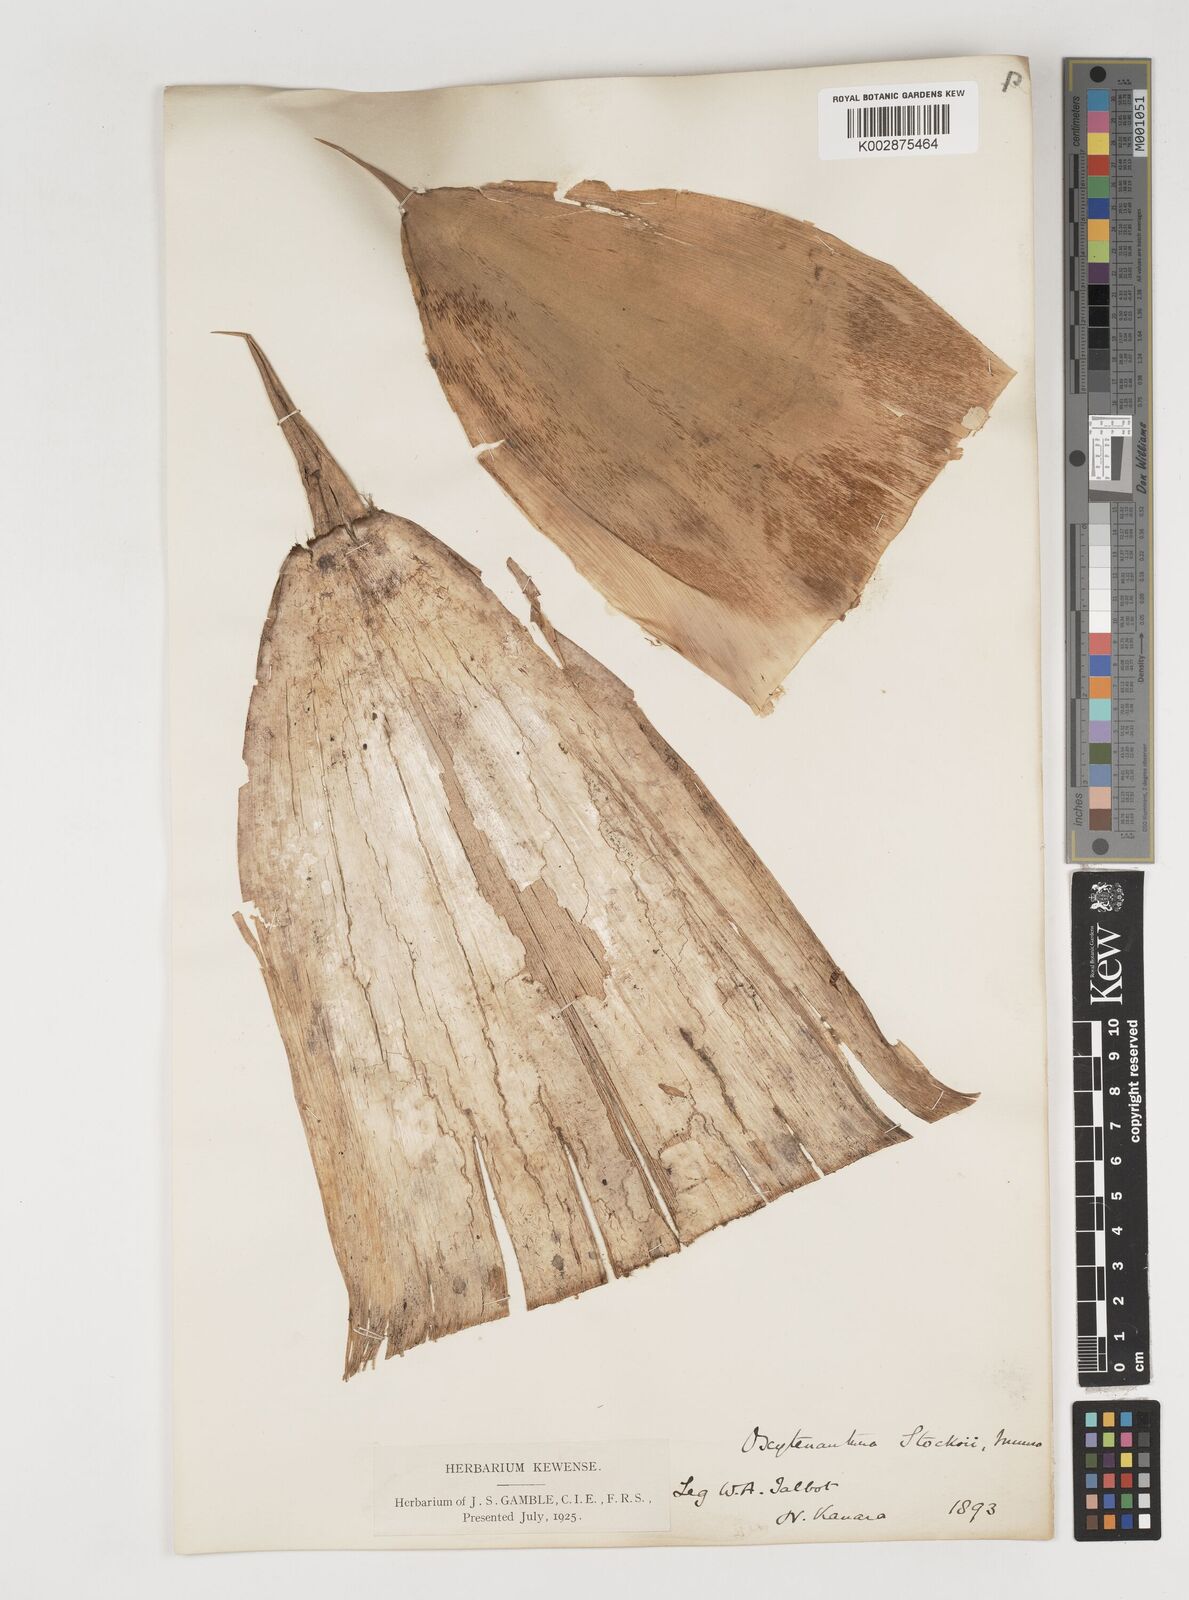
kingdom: Plantae
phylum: Tracheophyta
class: Liliopsida
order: Poales
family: Poaceae
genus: Pseudoxytenanthera
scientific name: Pseudoxytenanthera stocksii
